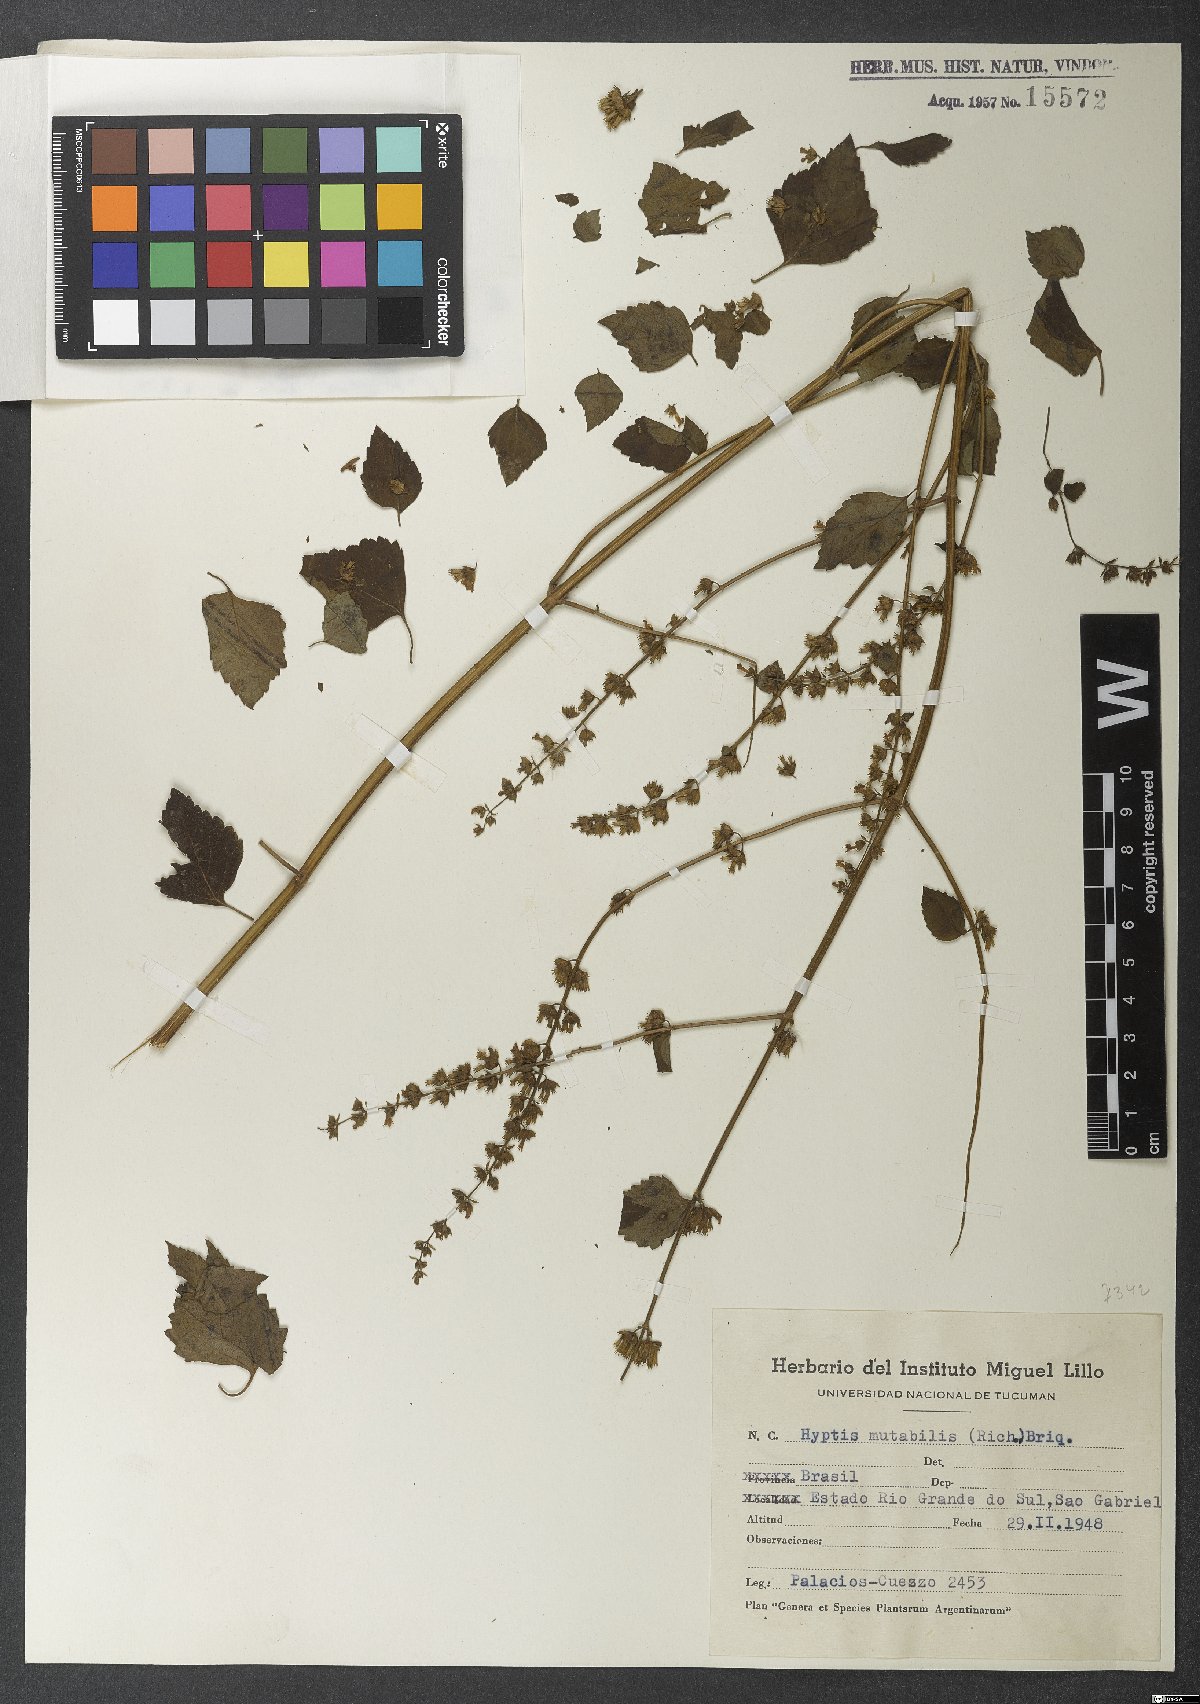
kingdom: Plantae
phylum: Tracheophyta
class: Magnoliopsida
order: Lamiales
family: Lamiaceae
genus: Cantinoa
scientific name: Cantinoa mutabilis
